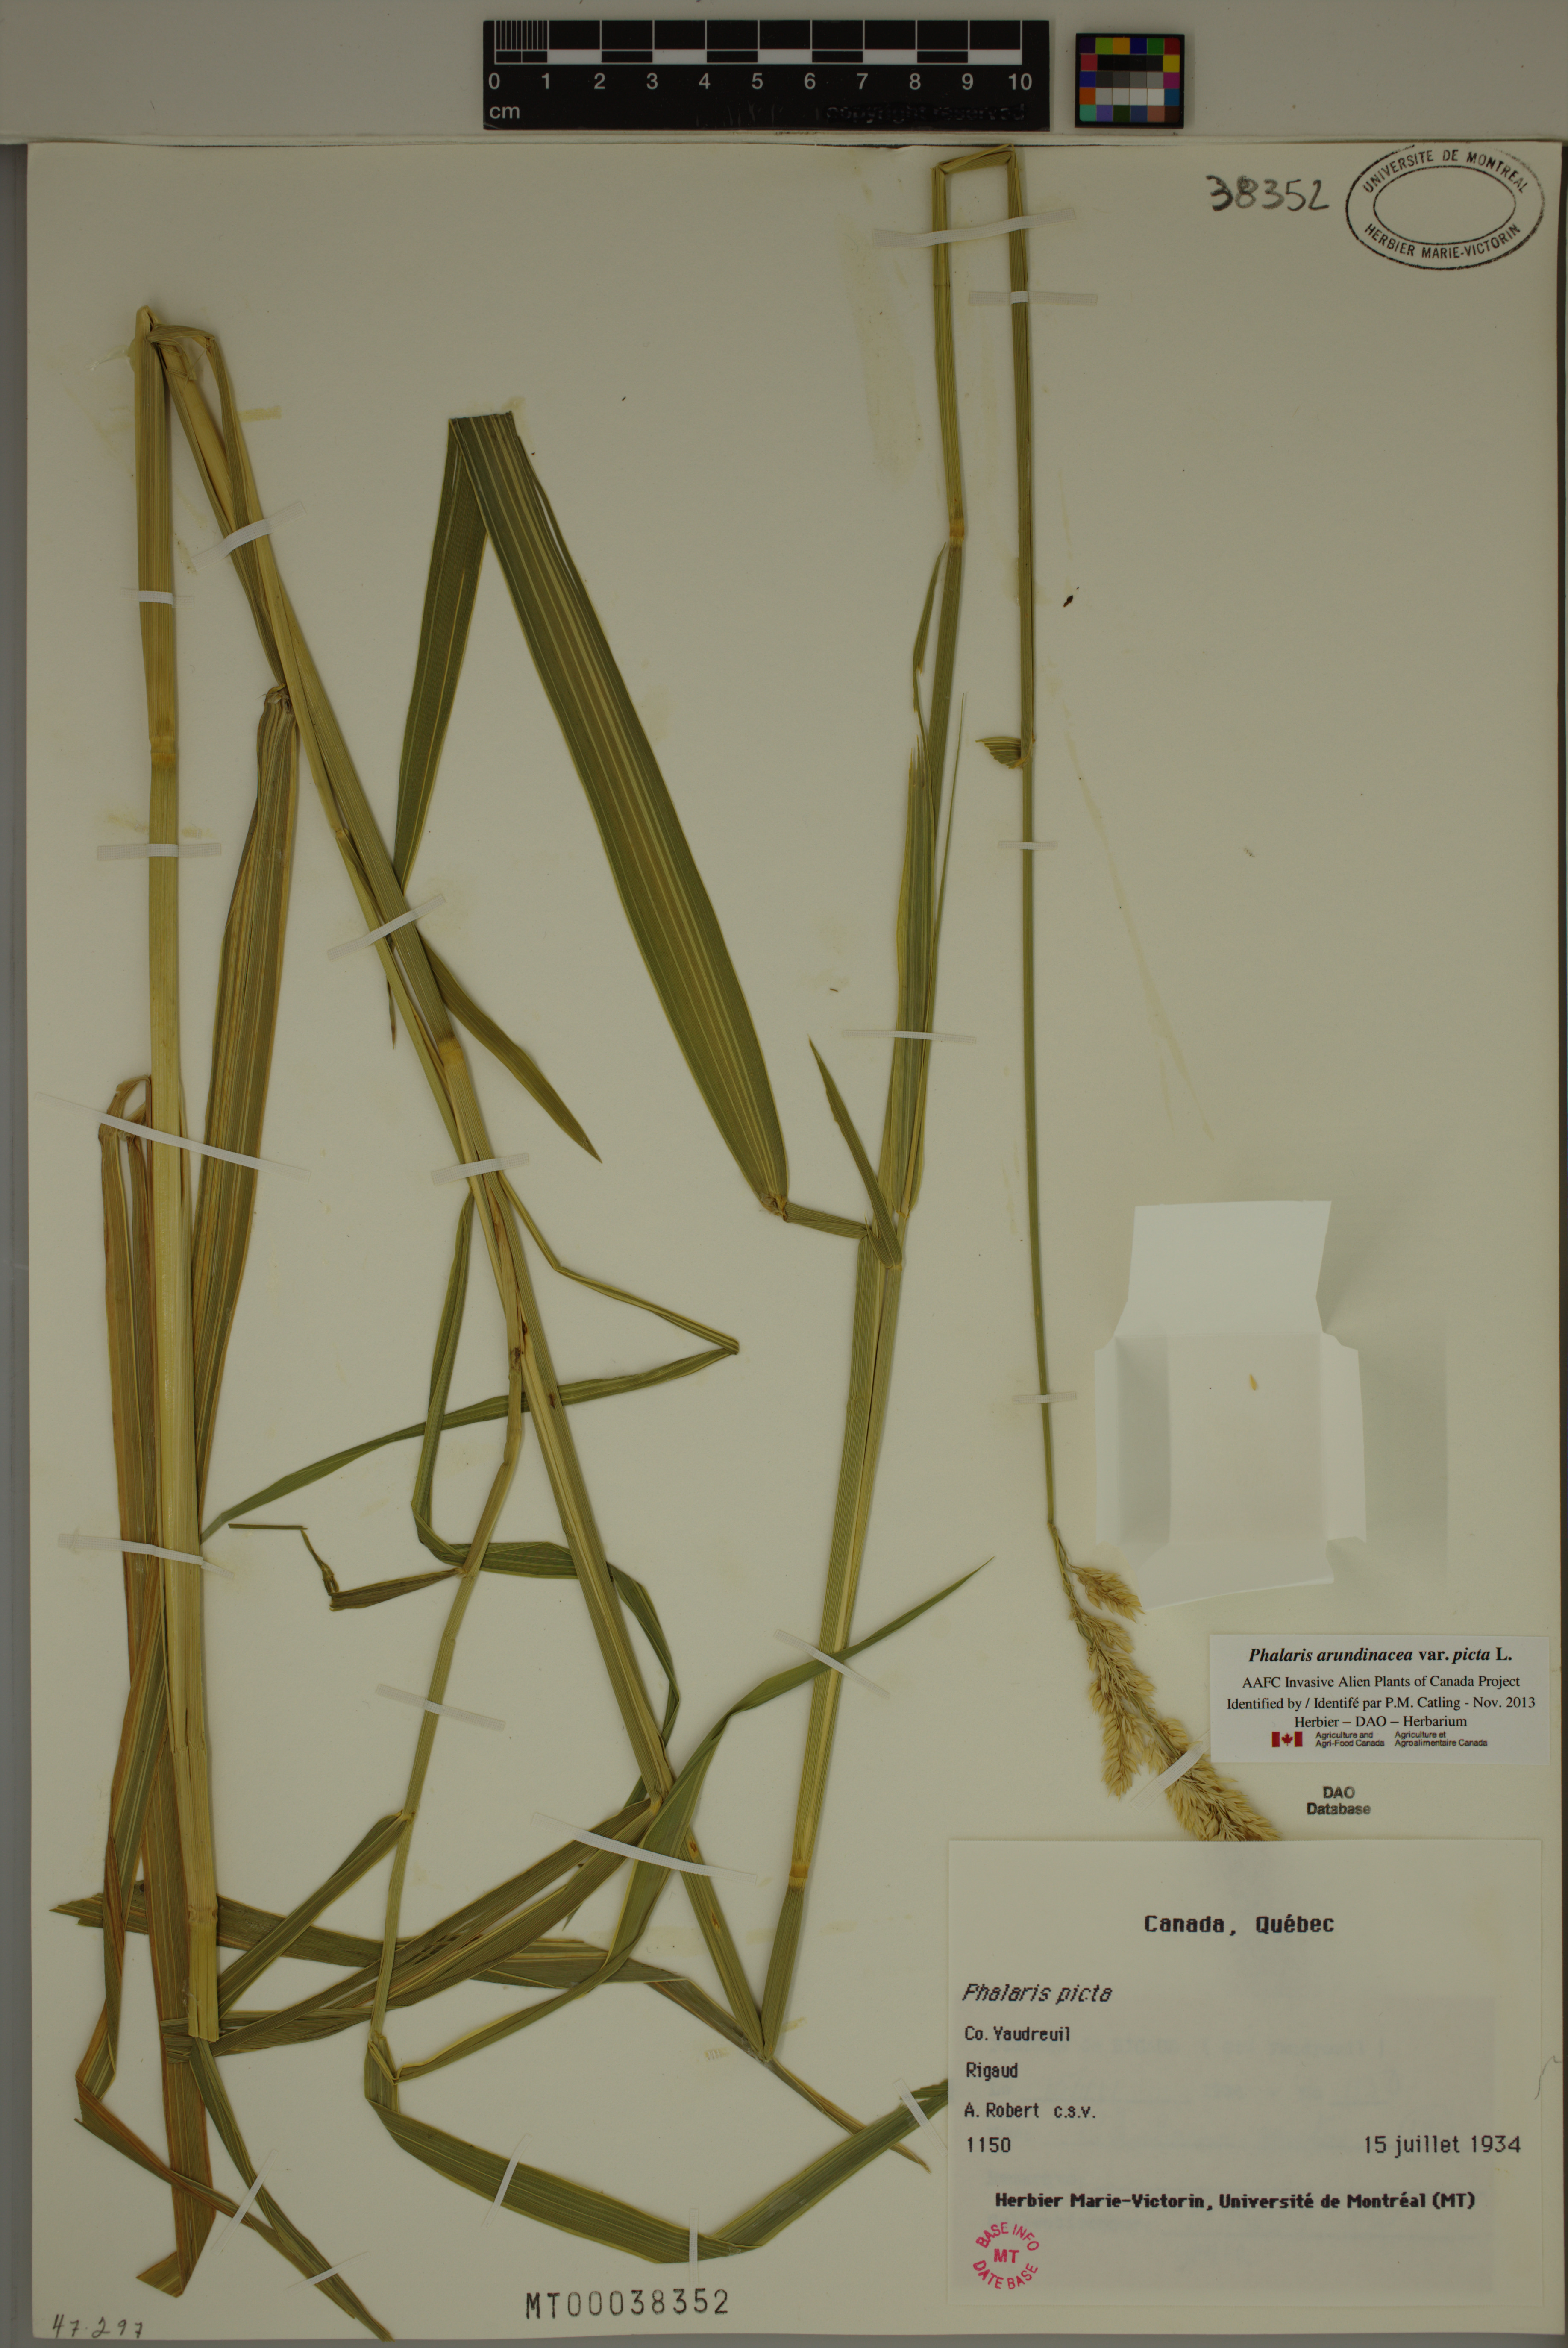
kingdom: Plantae
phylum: Tracheophyta
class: Liliopsida
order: Poales
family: Poaceae
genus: Phalaris
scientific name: Phalaris arundinacea
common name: Reed canary-grass
